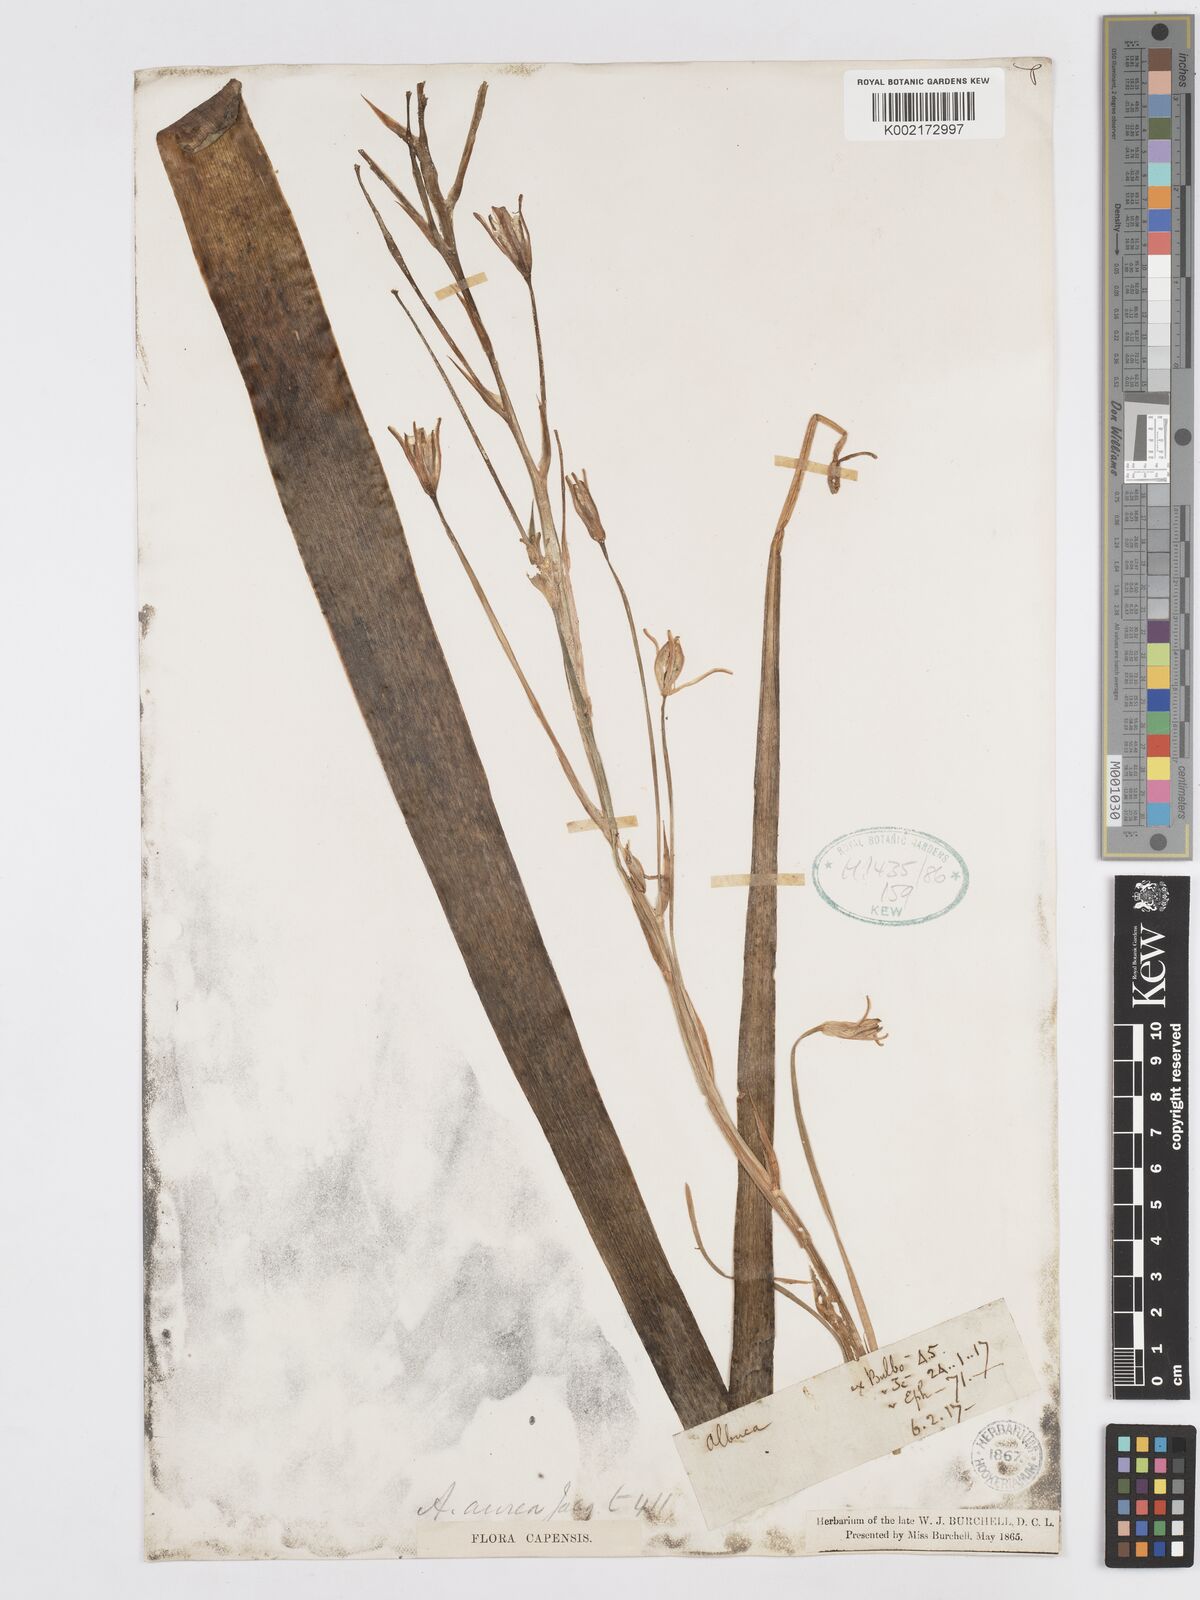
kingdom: Plantae
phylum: Tracheophyta
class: Liliopsida
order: Asparagales
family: Asparagaceae
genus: Albuca
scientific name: Albuca aurea
